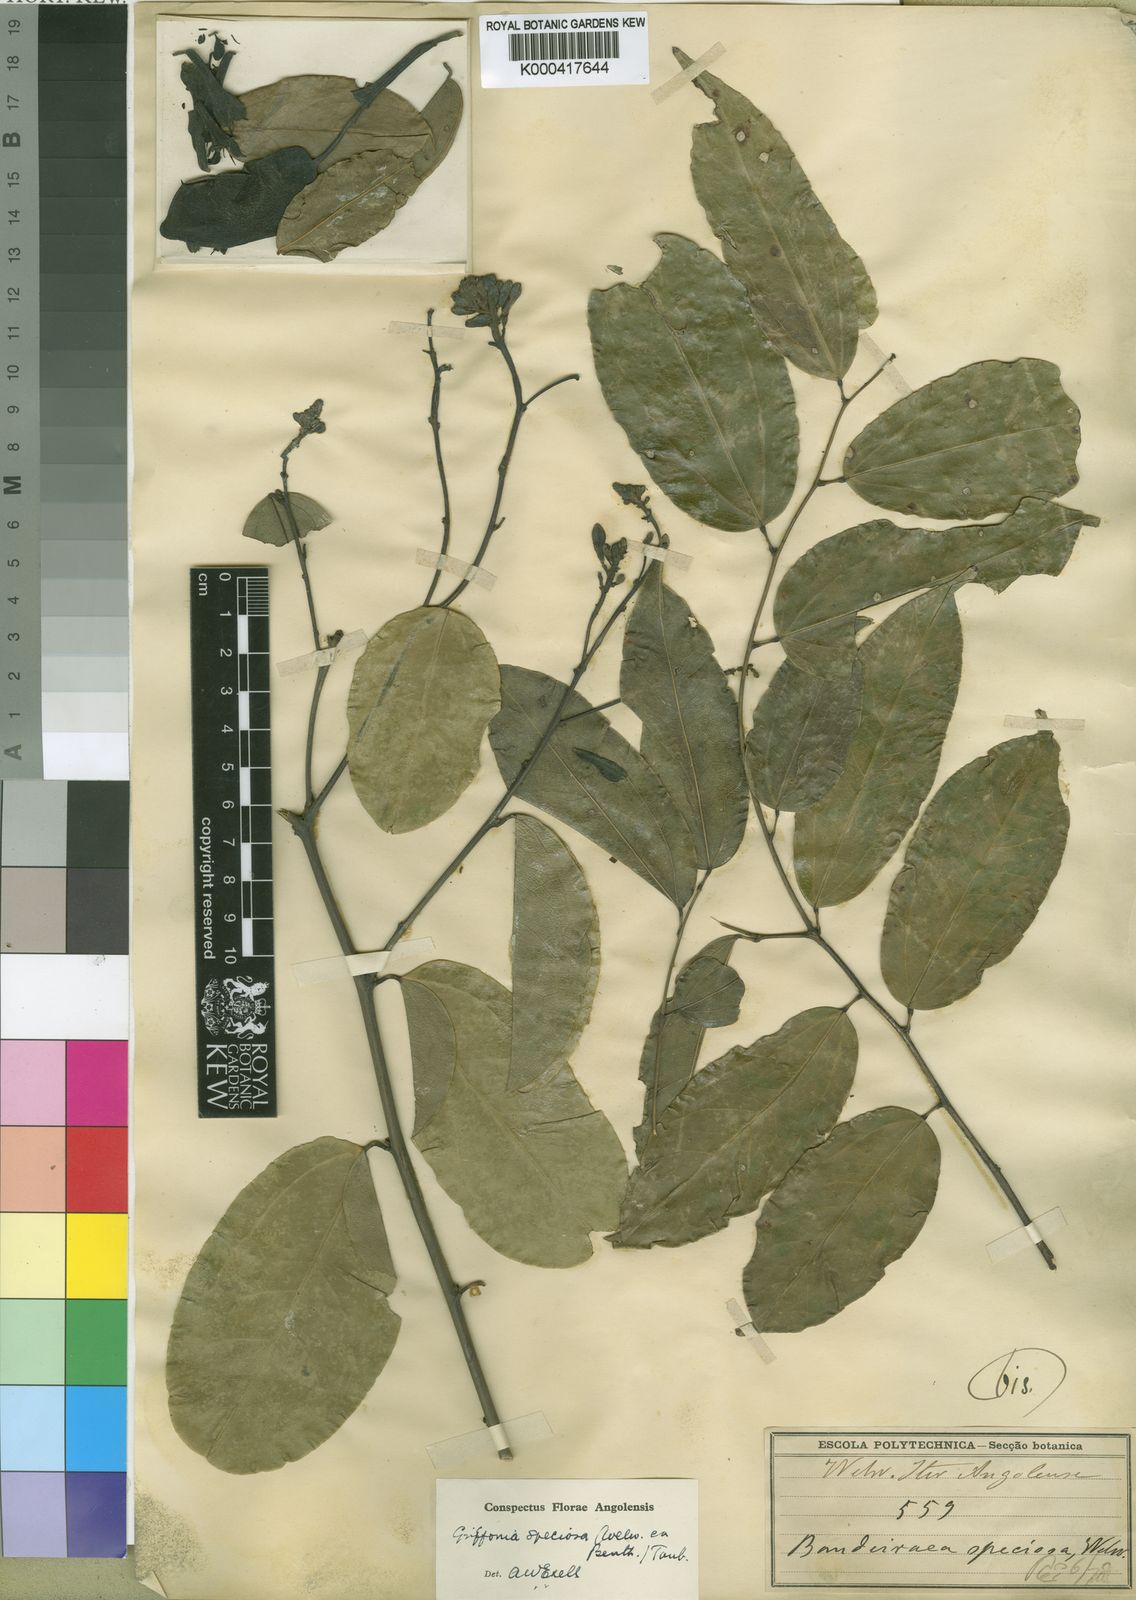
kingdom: Plantae
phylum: Tracheophyta
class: Magnoliopsida
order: Fabales
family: Fabaceae
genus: Griffonia
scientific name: Griffonia speciosa
